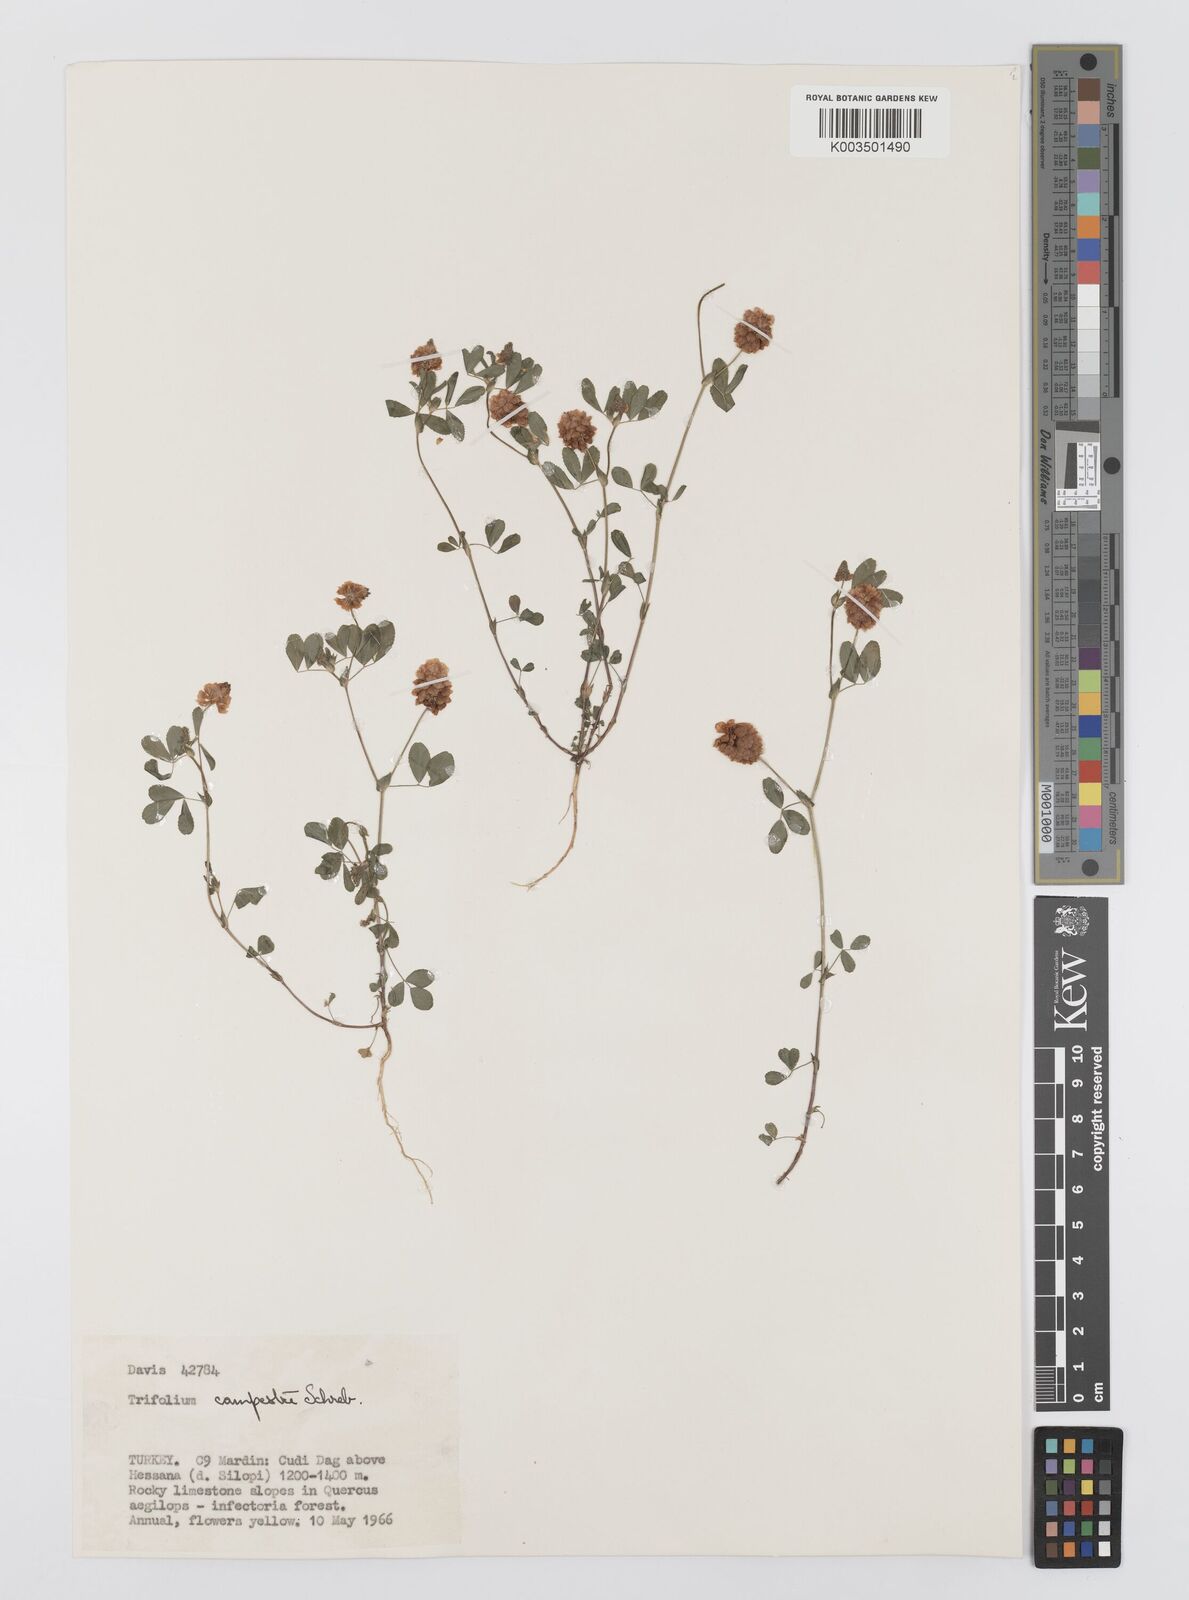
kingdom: Plantae
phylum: Tracheophyta
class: Magnoliopsida
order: Fabales
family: Fabaceae
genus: Trifolium
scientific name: Trifolium campestre
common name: Field clover
